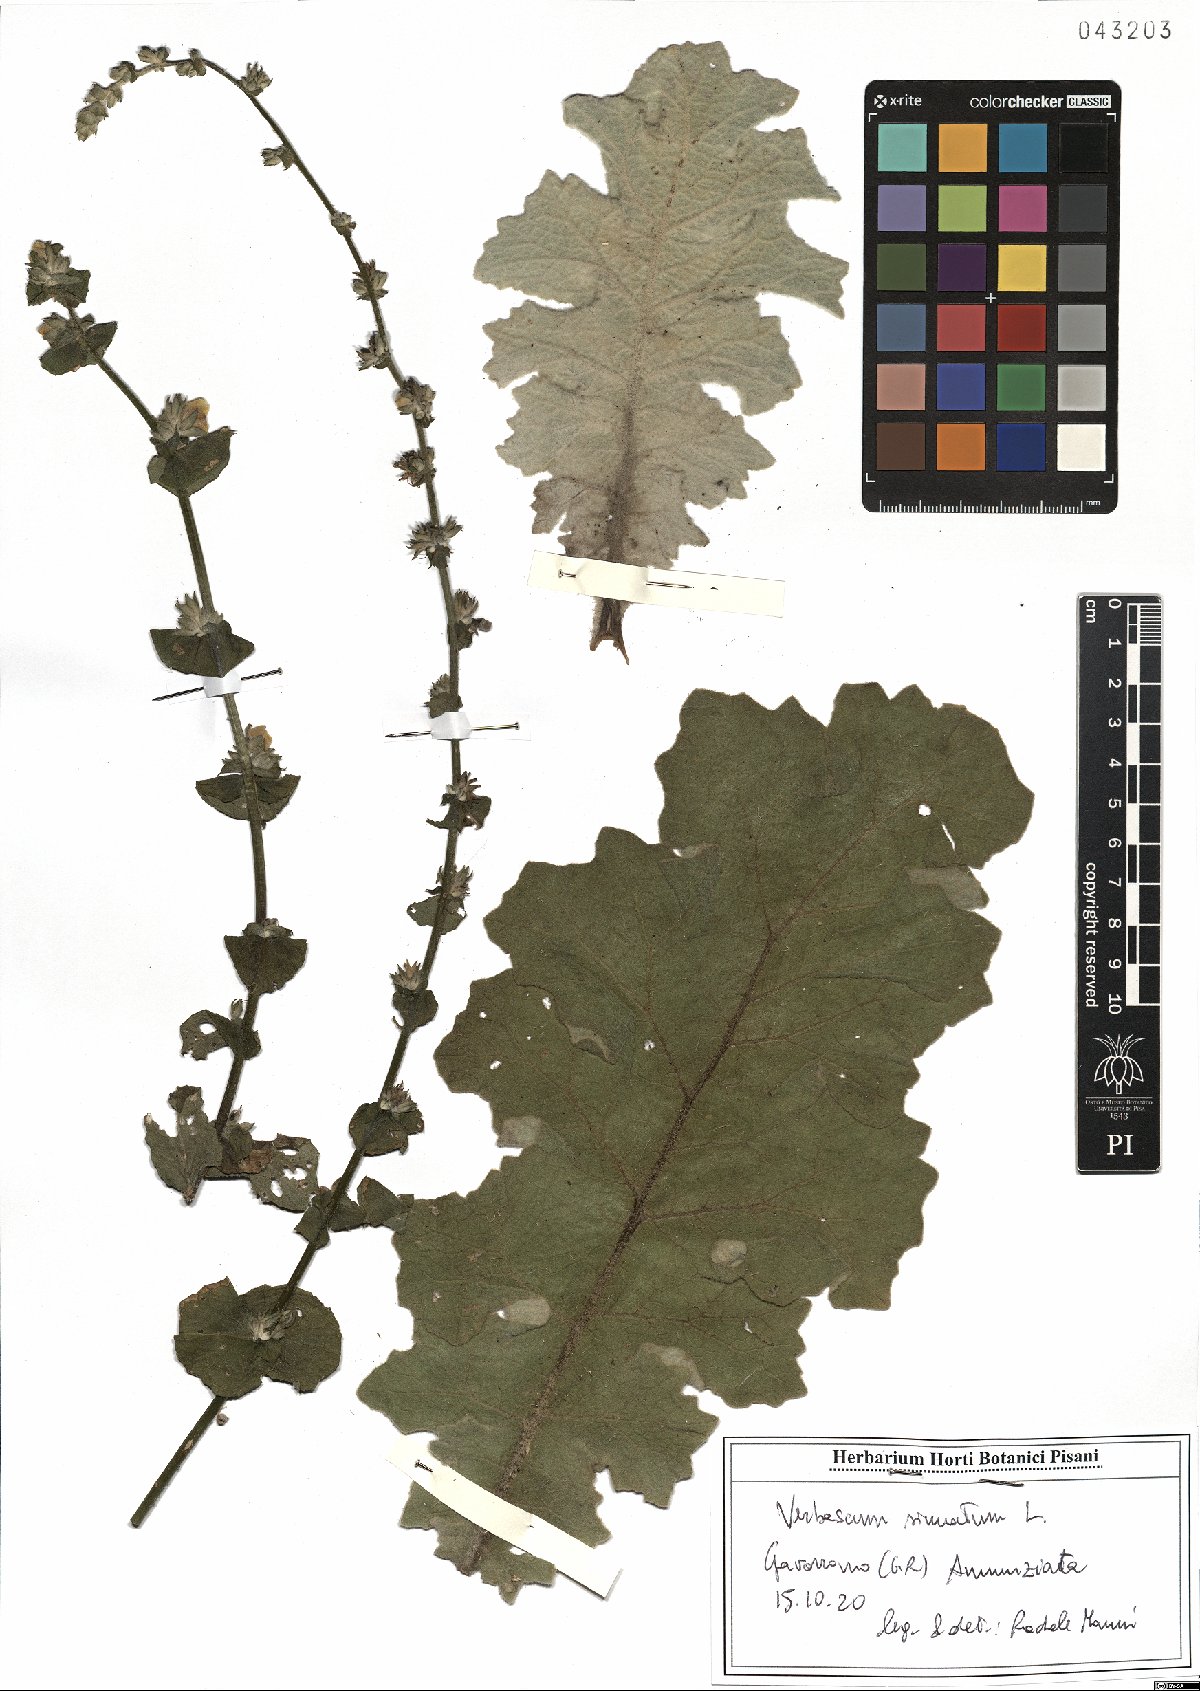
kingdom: Plantae
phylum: Tracheophyta
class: Magnoliopsida
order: Lamiales
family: Scrophulariaceae
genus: Verbascum
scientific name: Verbascum sinuatum
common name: Wavyleaf mullein
